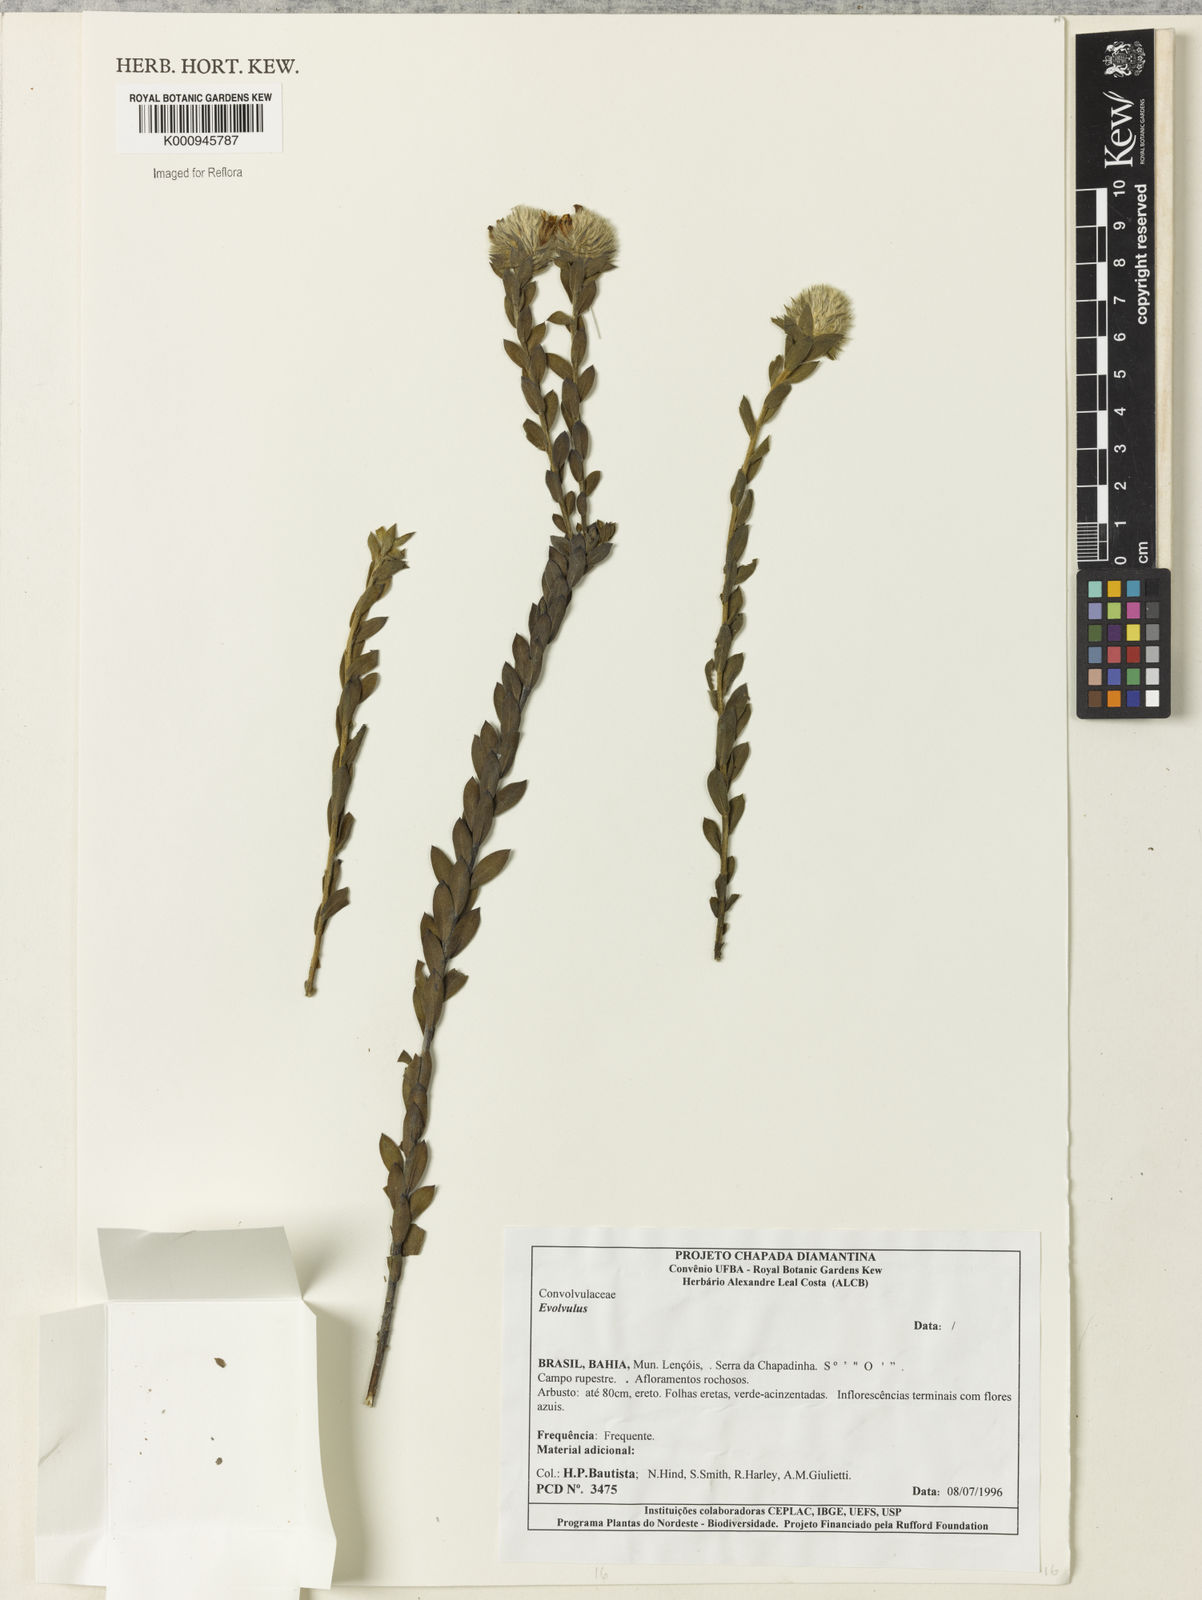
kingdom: Plantae
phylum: Tracheophyta
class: Magnoliopsida
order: Solanales
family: Convolvulaceae
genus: Evolvulus
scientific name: Evolvulus
